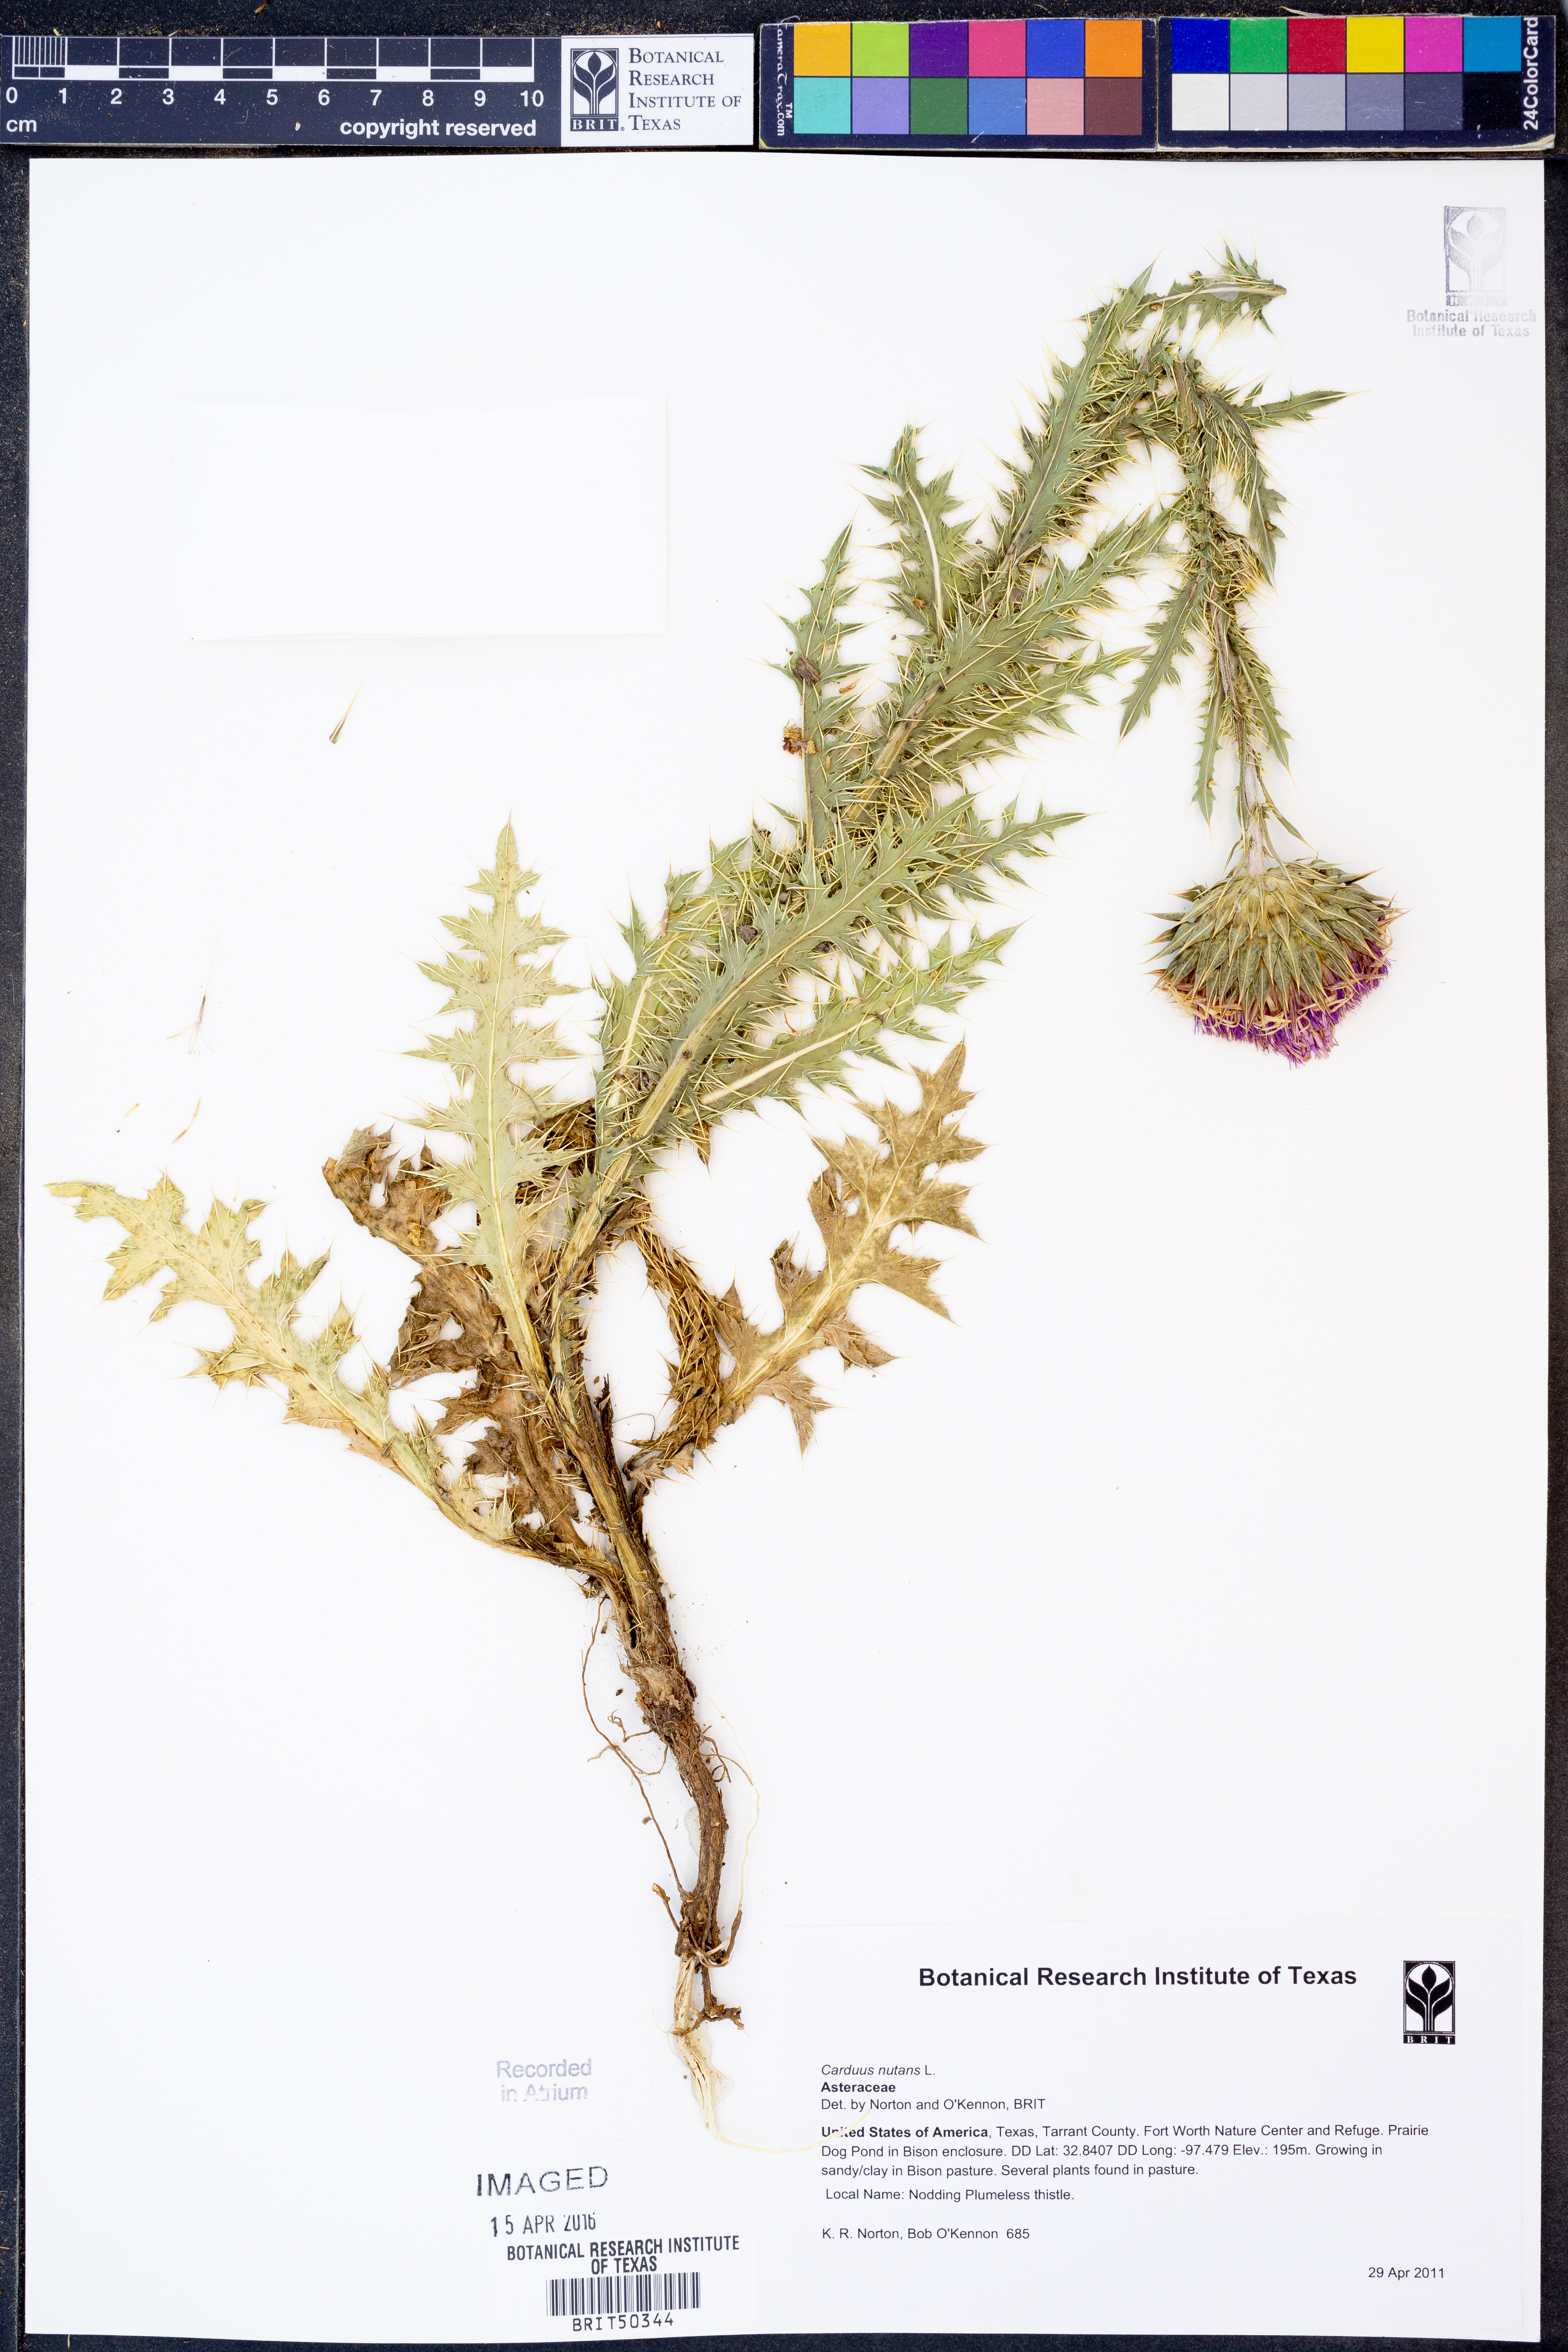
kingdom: Plantae
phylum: Tracheophyta
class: Magnoliopsida
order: Asterales
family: Asteraceae
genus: Carduus
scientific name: Carduus nutans
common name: Musk thistle
